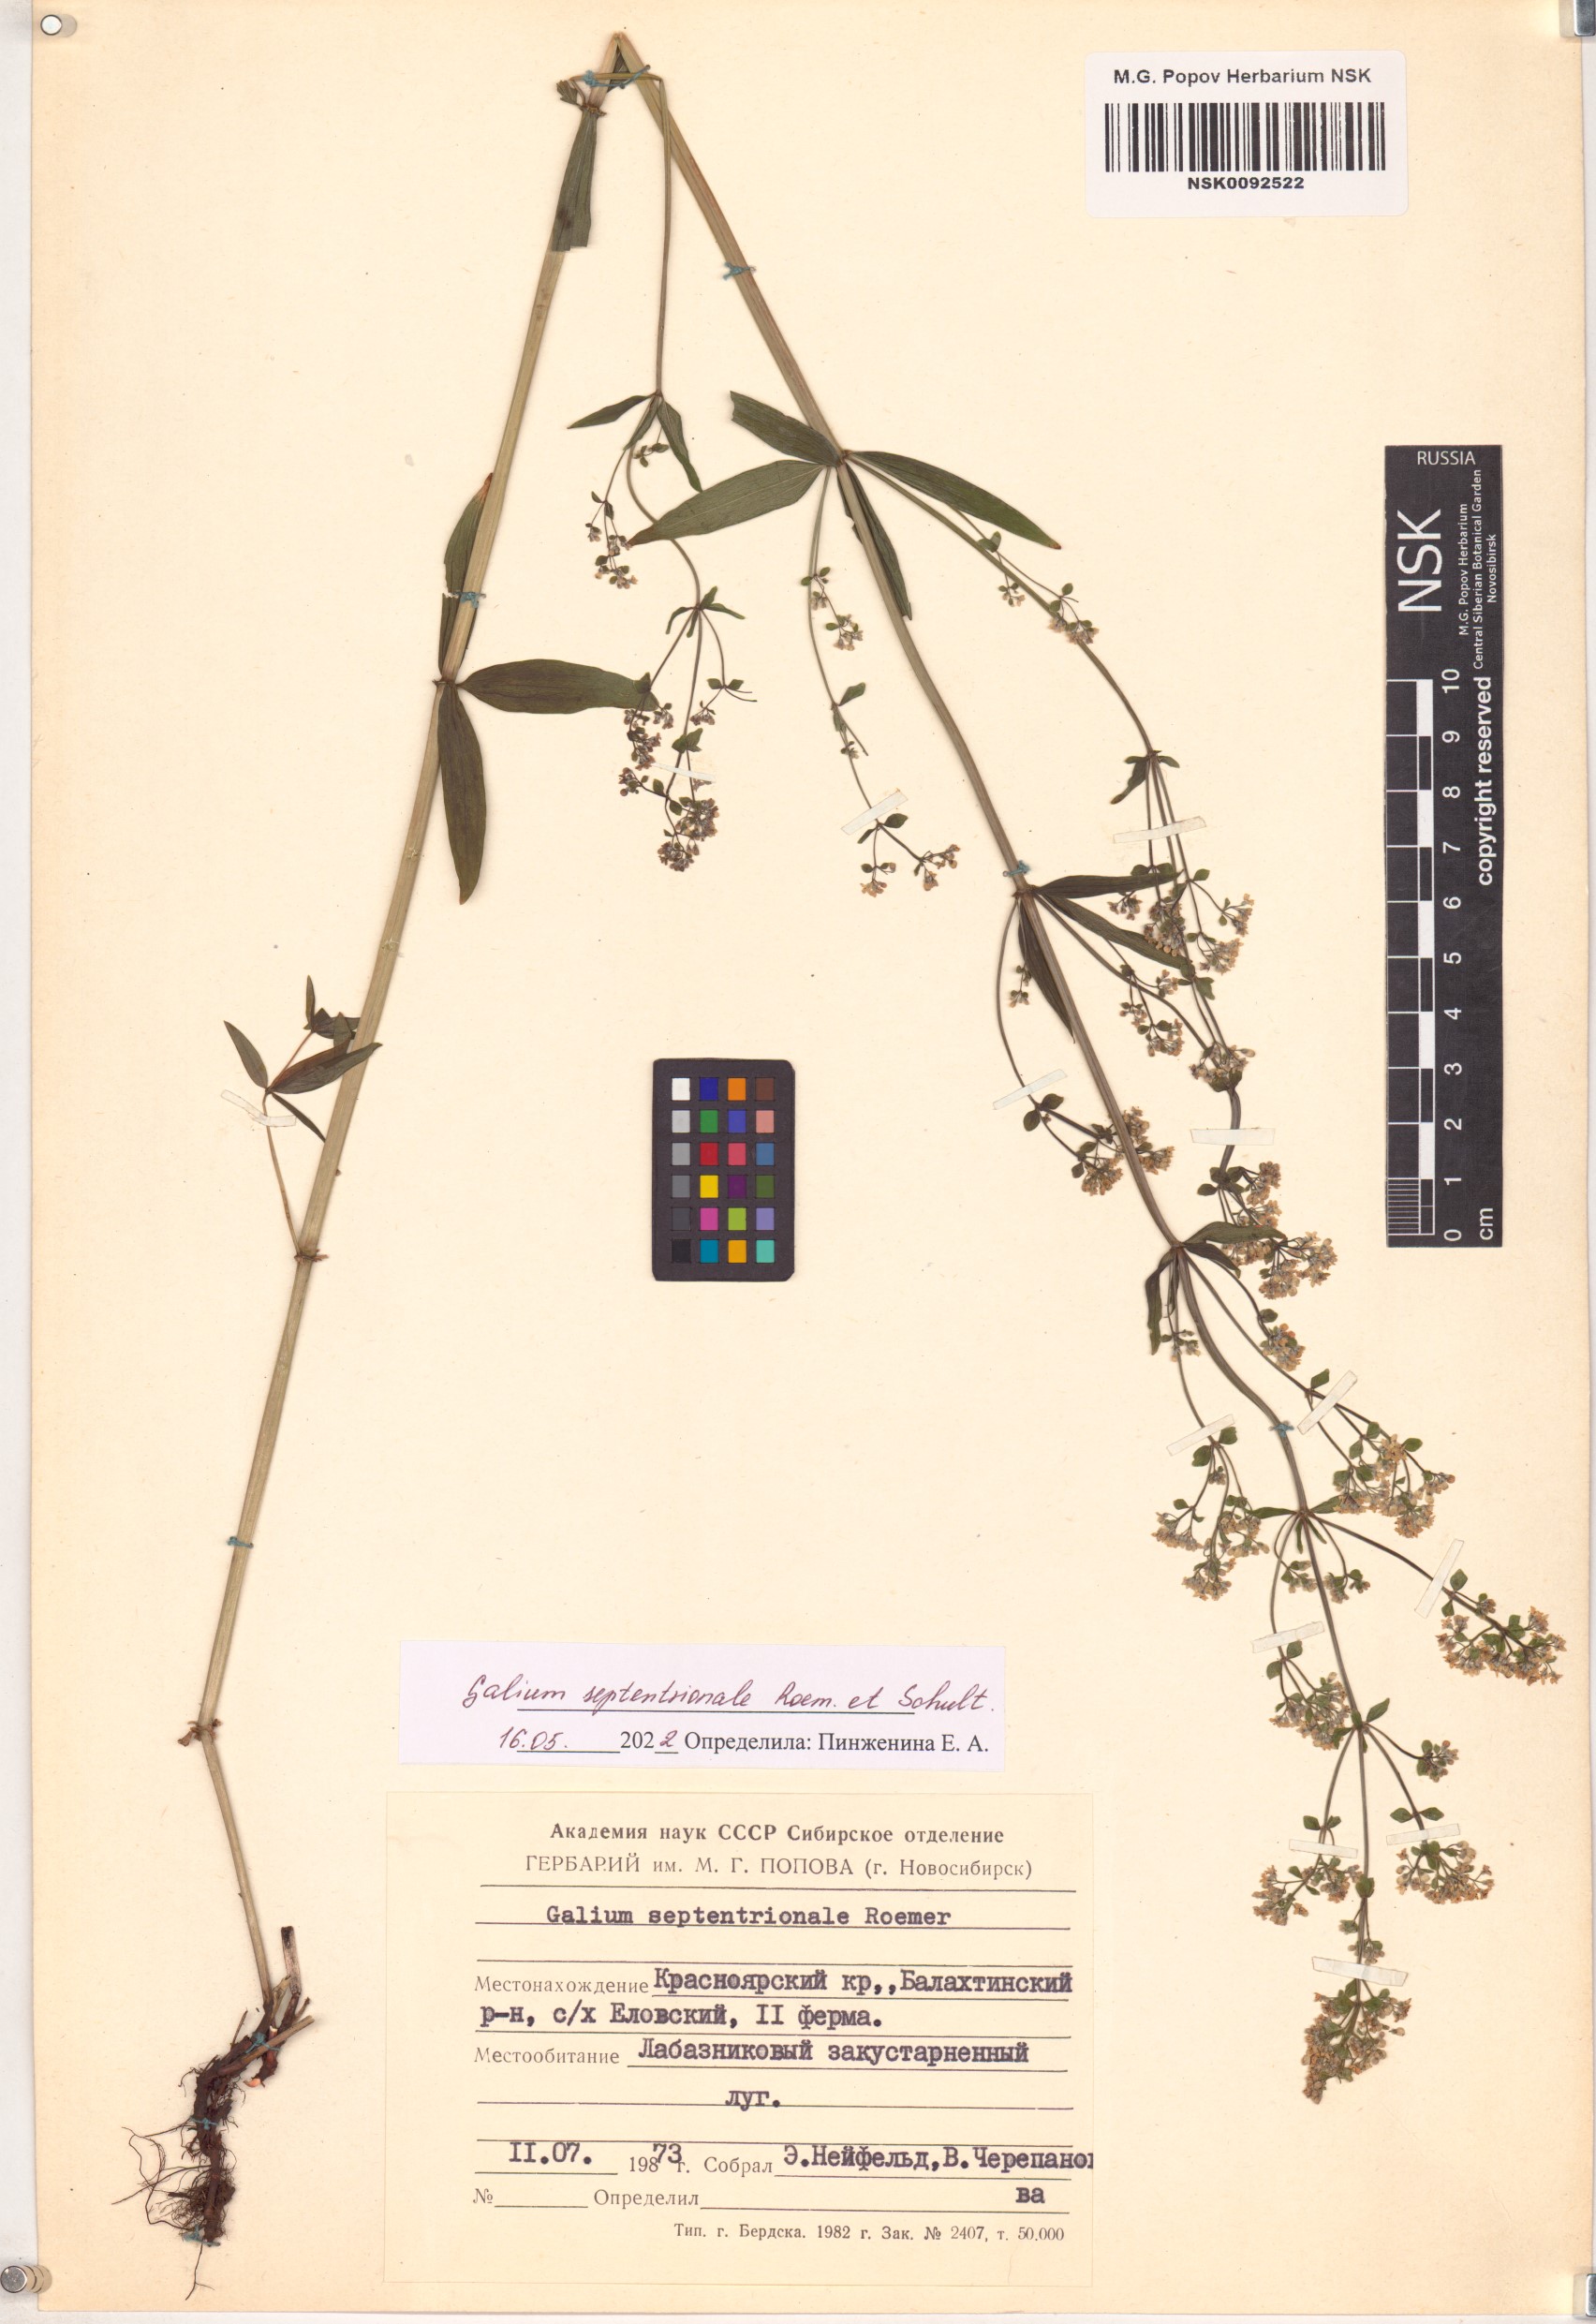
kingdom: Plantae
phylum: Tracheophyta
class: Magnoliopsida
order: Gentianales
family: Rubiaceae
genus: Galium
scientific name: Galium boreale
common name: Northern bedstraw
